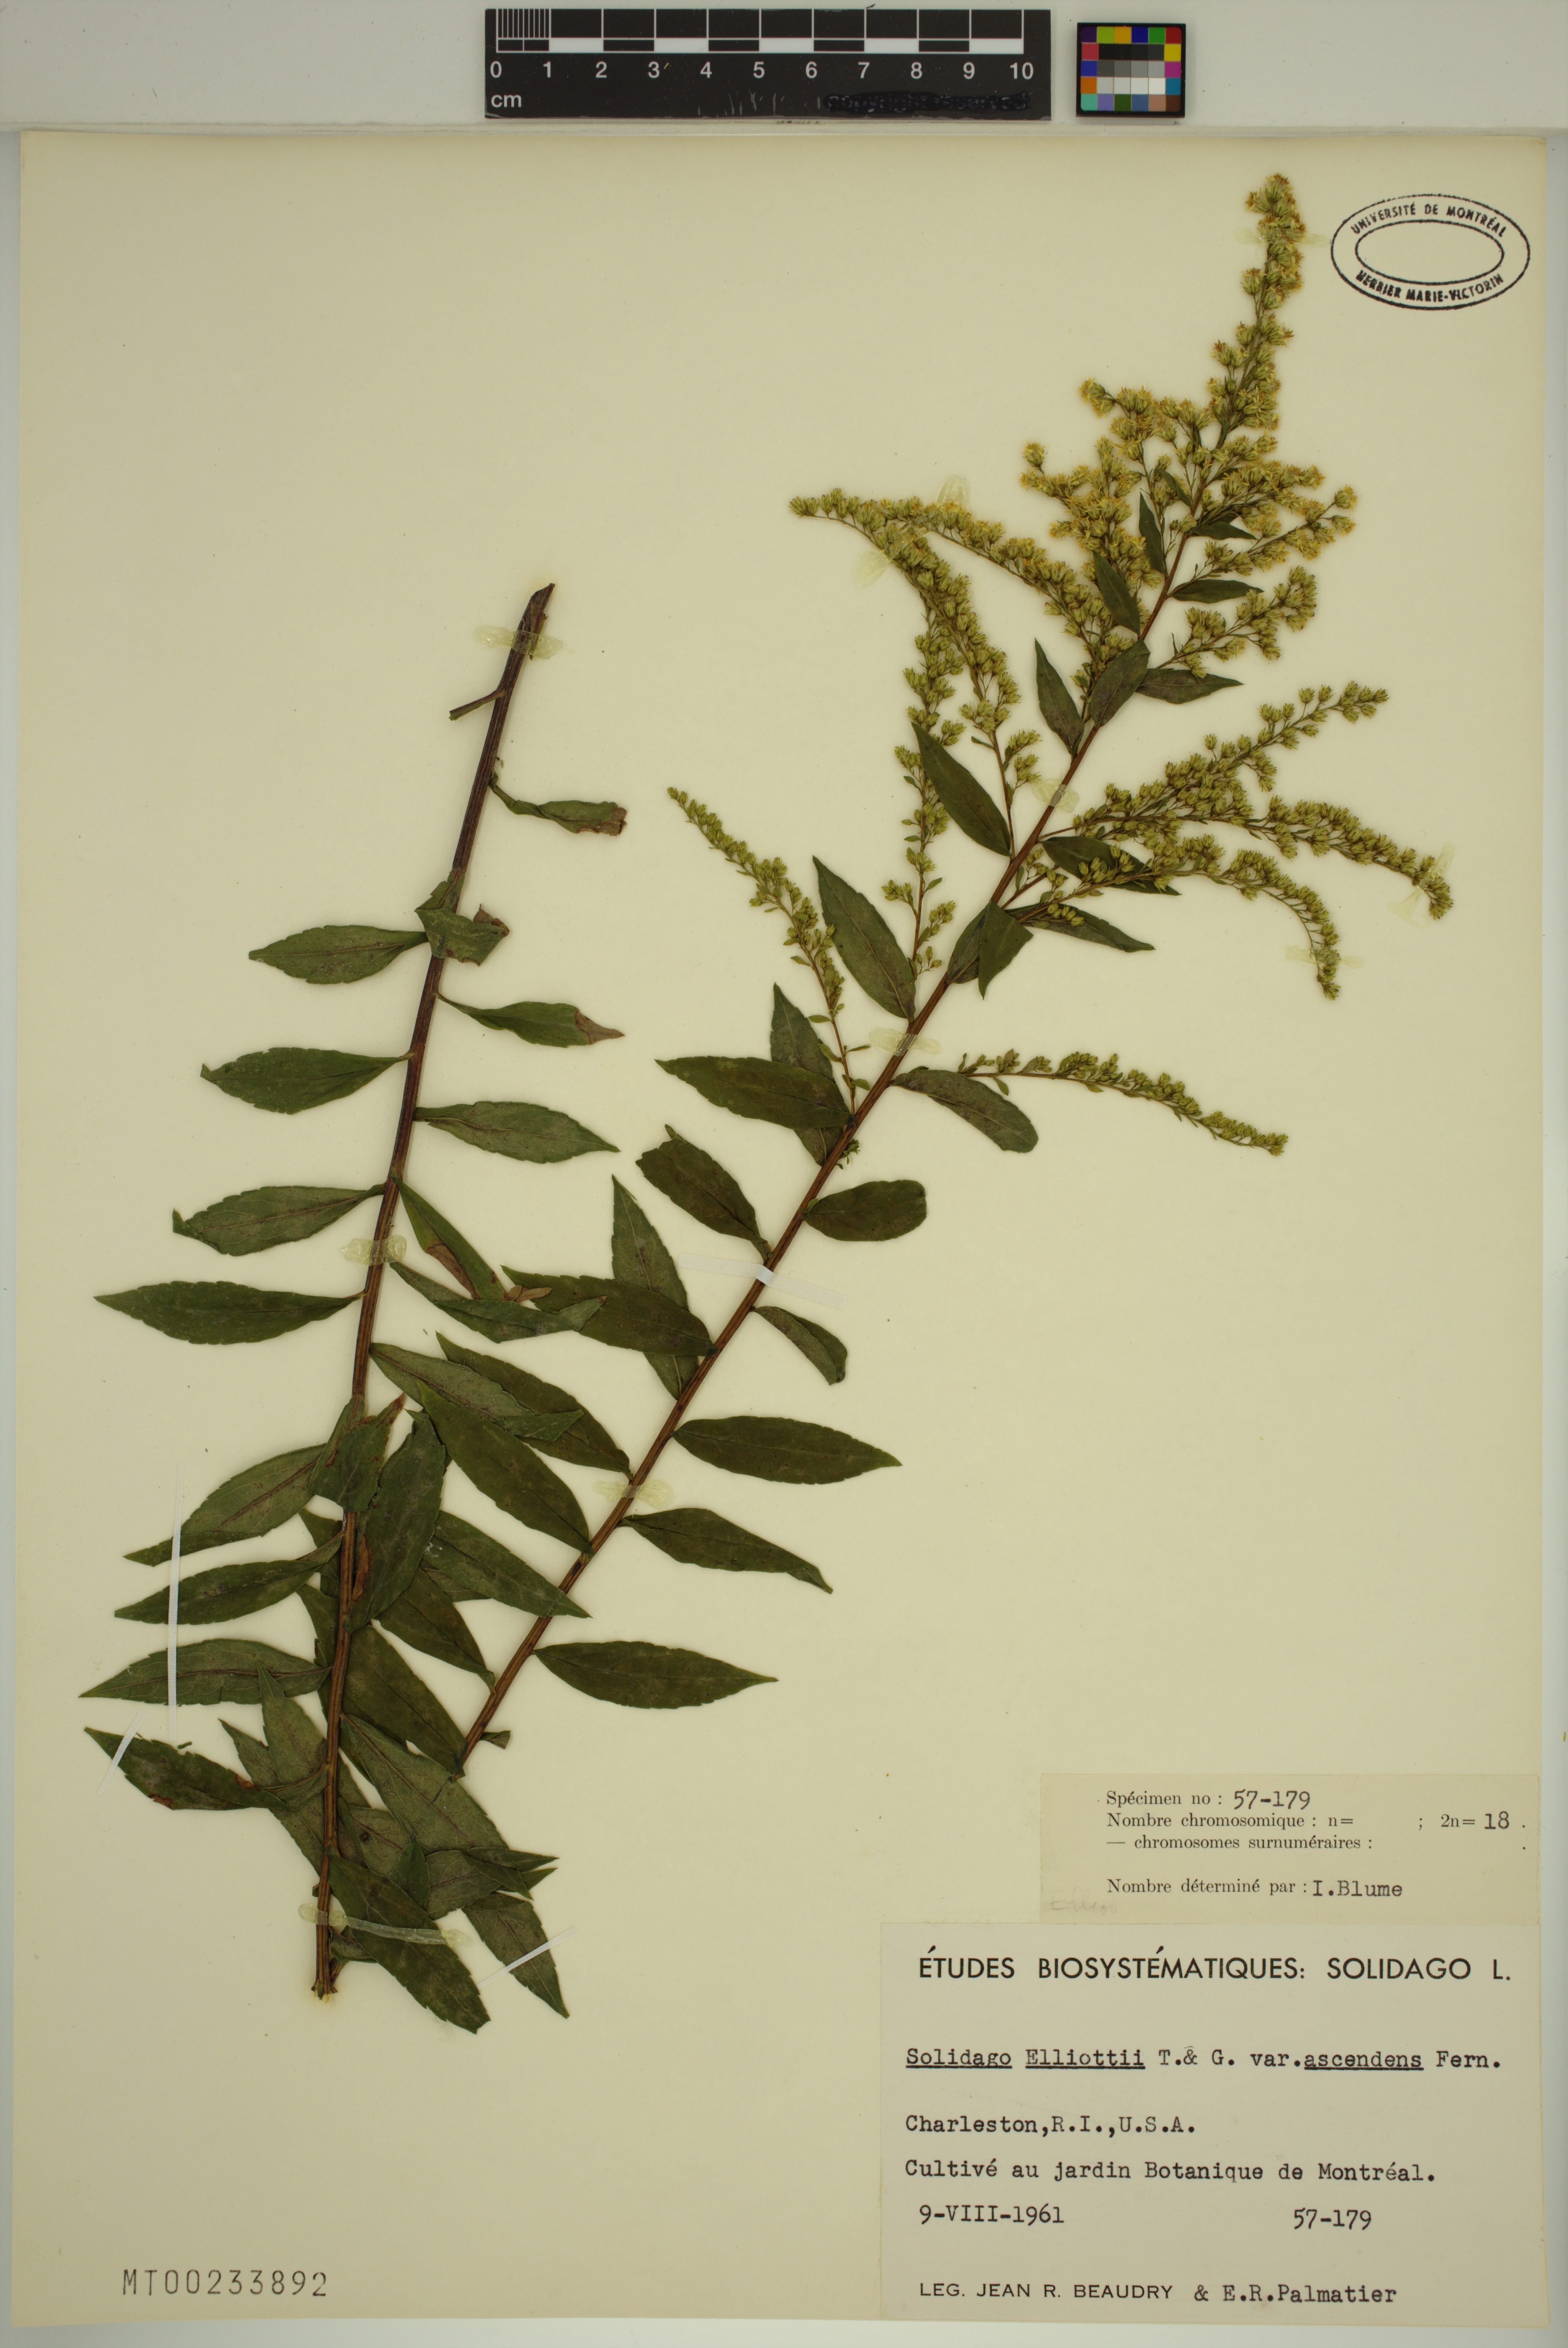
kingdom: Plantae
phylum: Tracheophyta
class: Magnoliopsida
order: Asterales
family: Asteraceae
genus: Solidago
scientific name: Solidago latissimifolia
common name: Elliott's goldenrod
